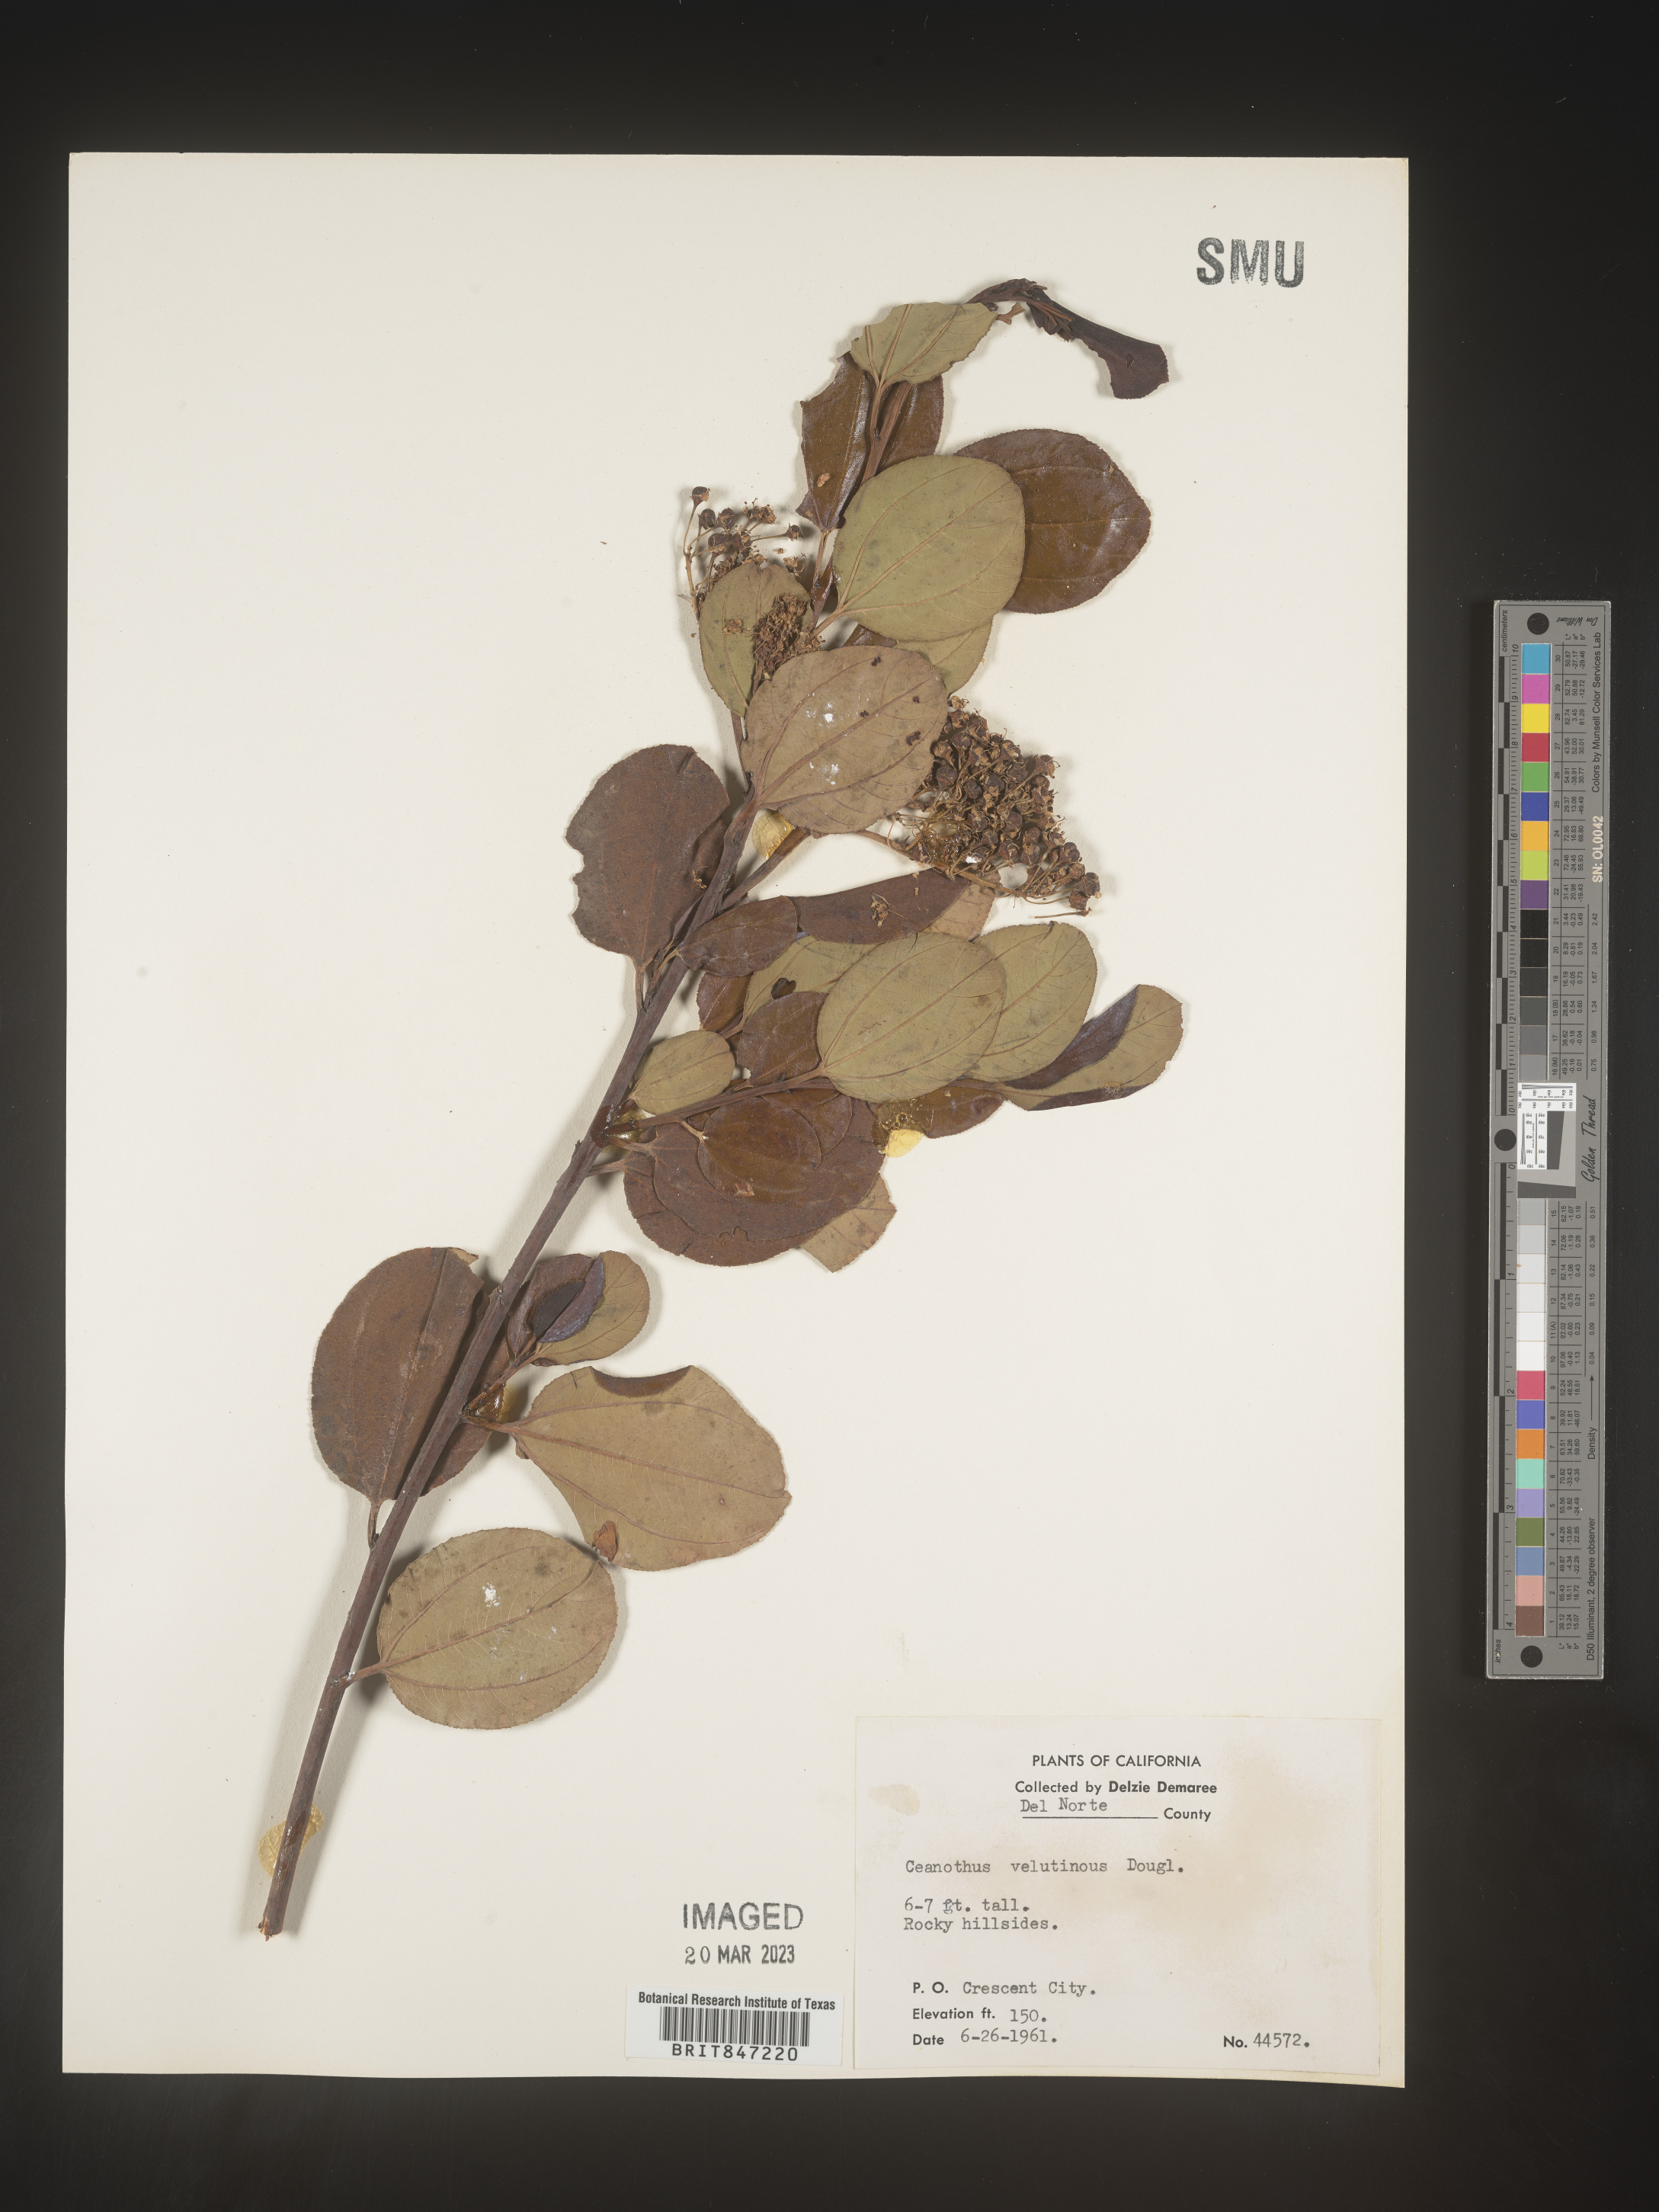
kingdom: Plantae
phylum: Tracheophyta
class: Magnoliopsida
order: Rosales
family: Rhamnaceae
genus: Ceanothus
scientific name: Ceanothus velutinus
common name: Snowbrush
